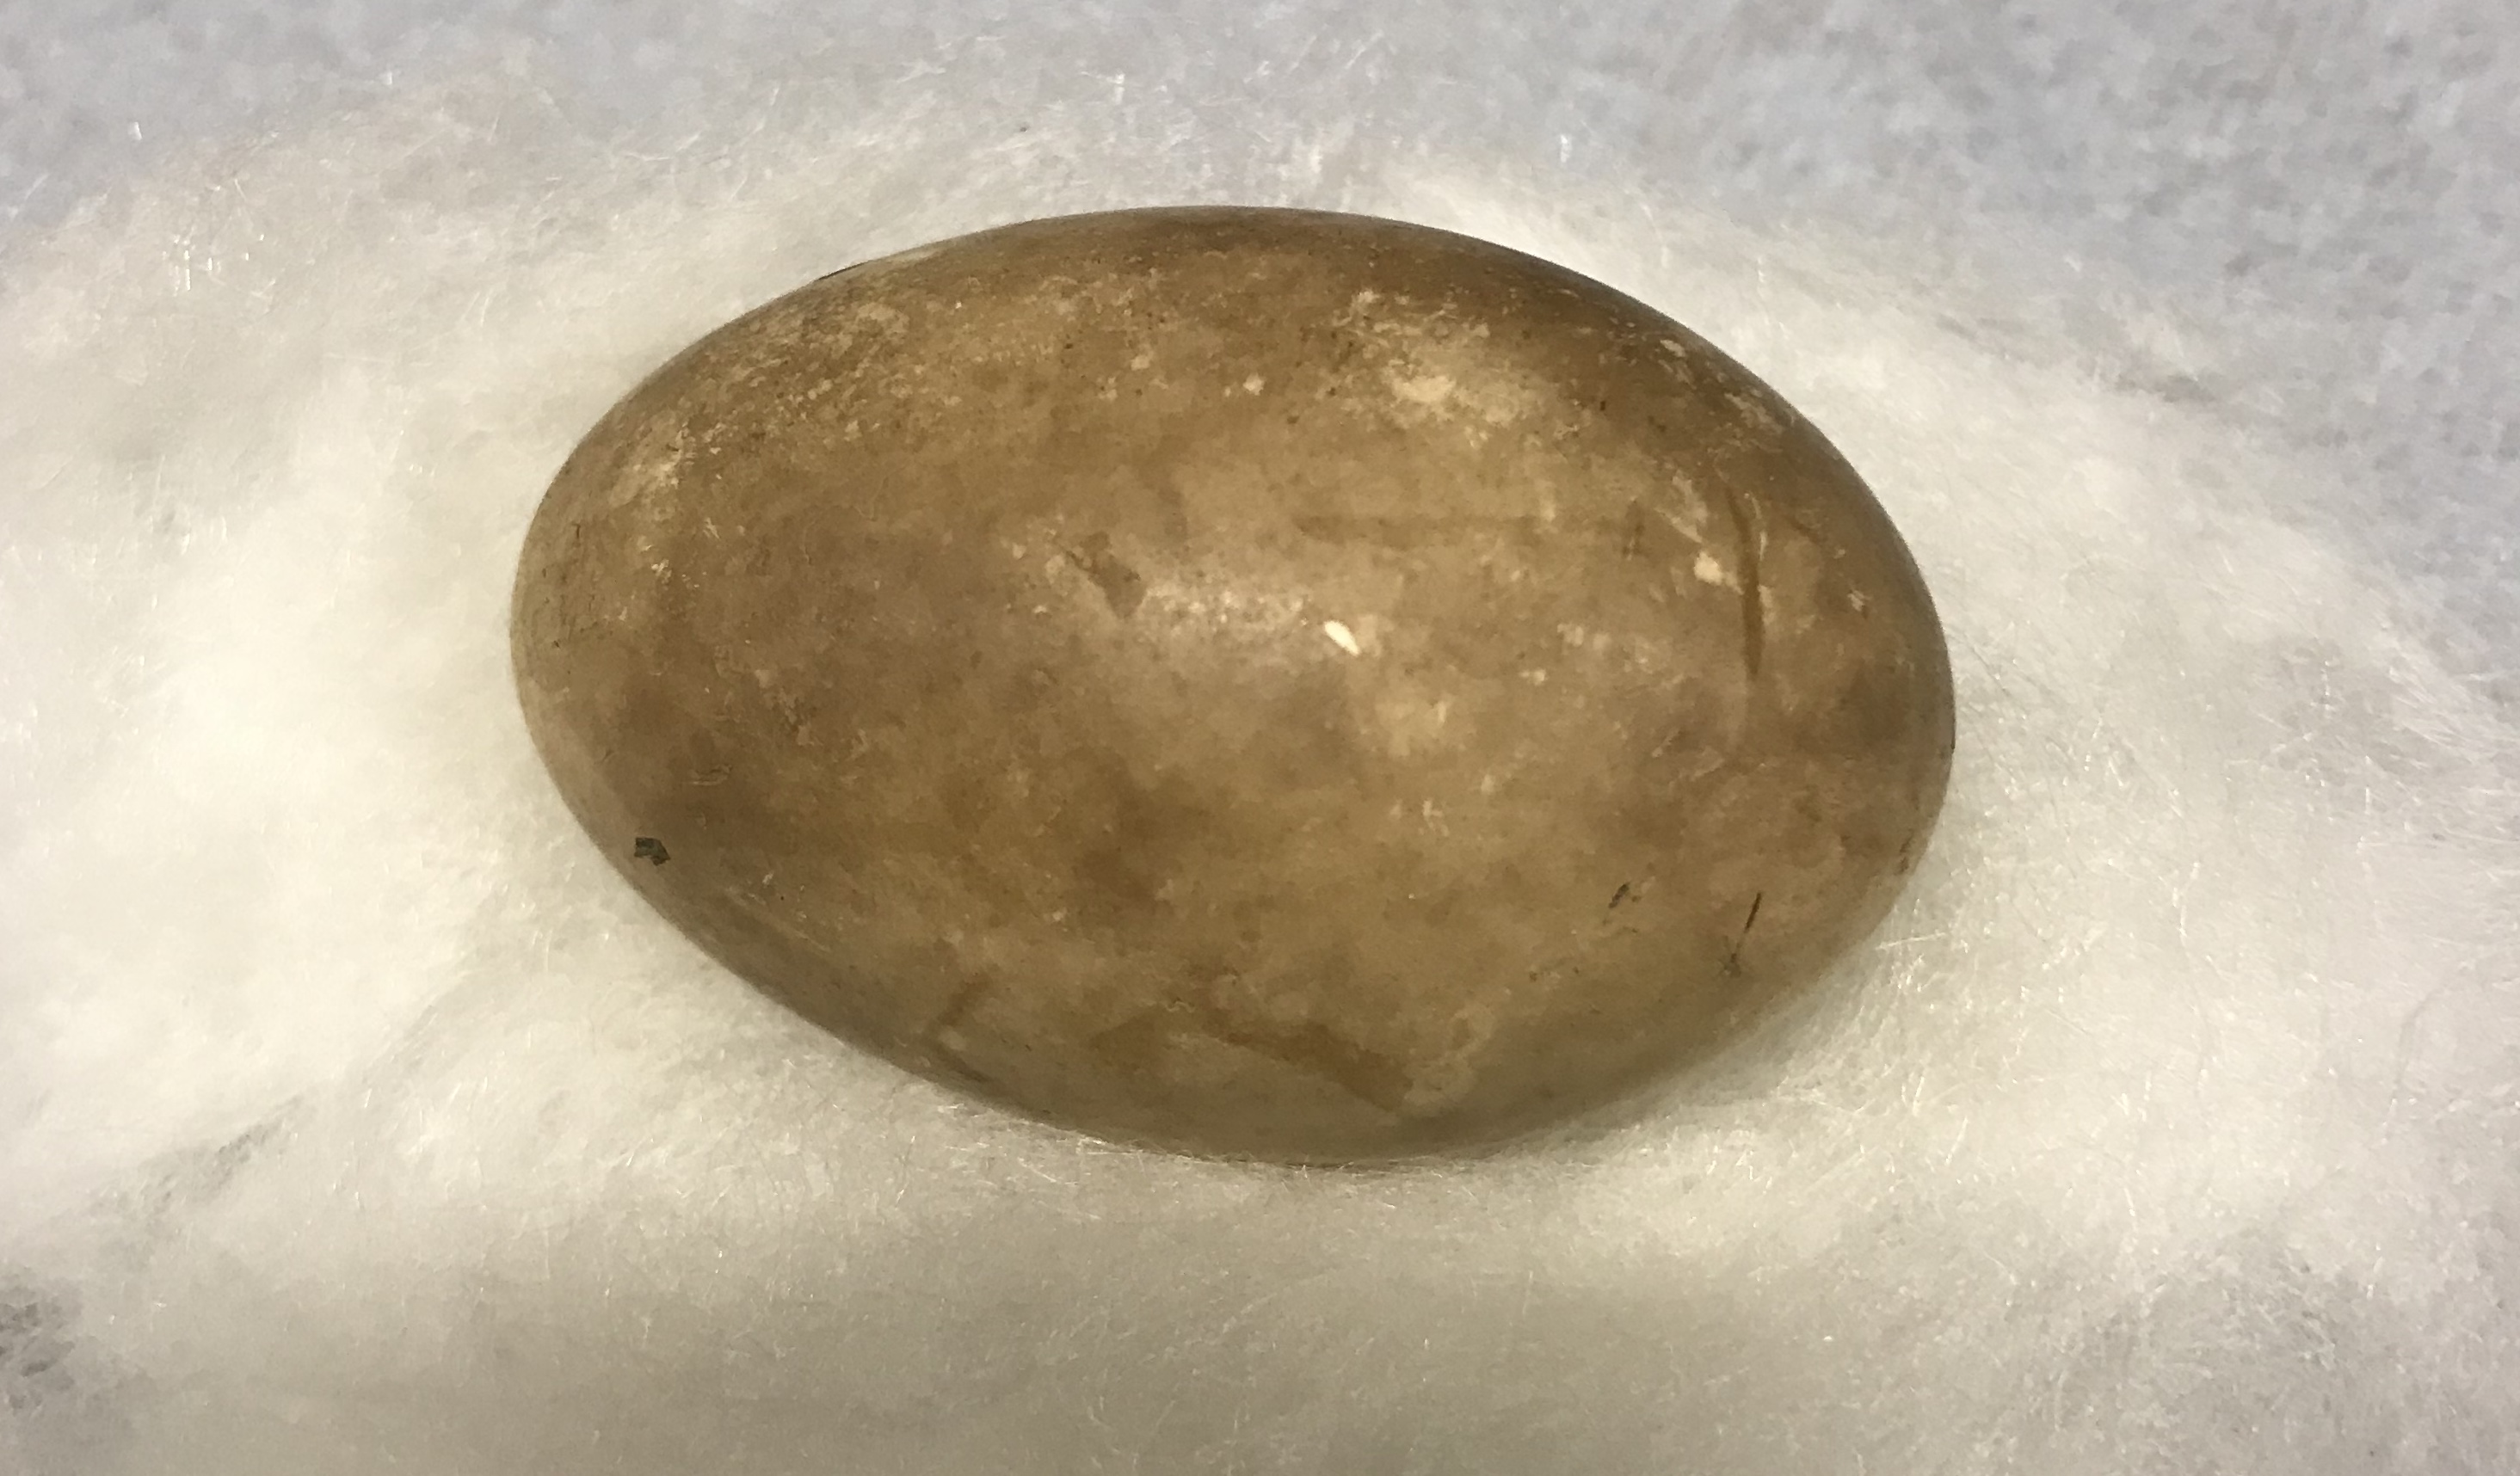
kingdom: Animalia
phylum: Chordata
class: Aves
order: Podicipediformes
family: Podicipedidae
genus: Podiceps
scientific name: Podiceps cristatus
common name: Great crested grebe
